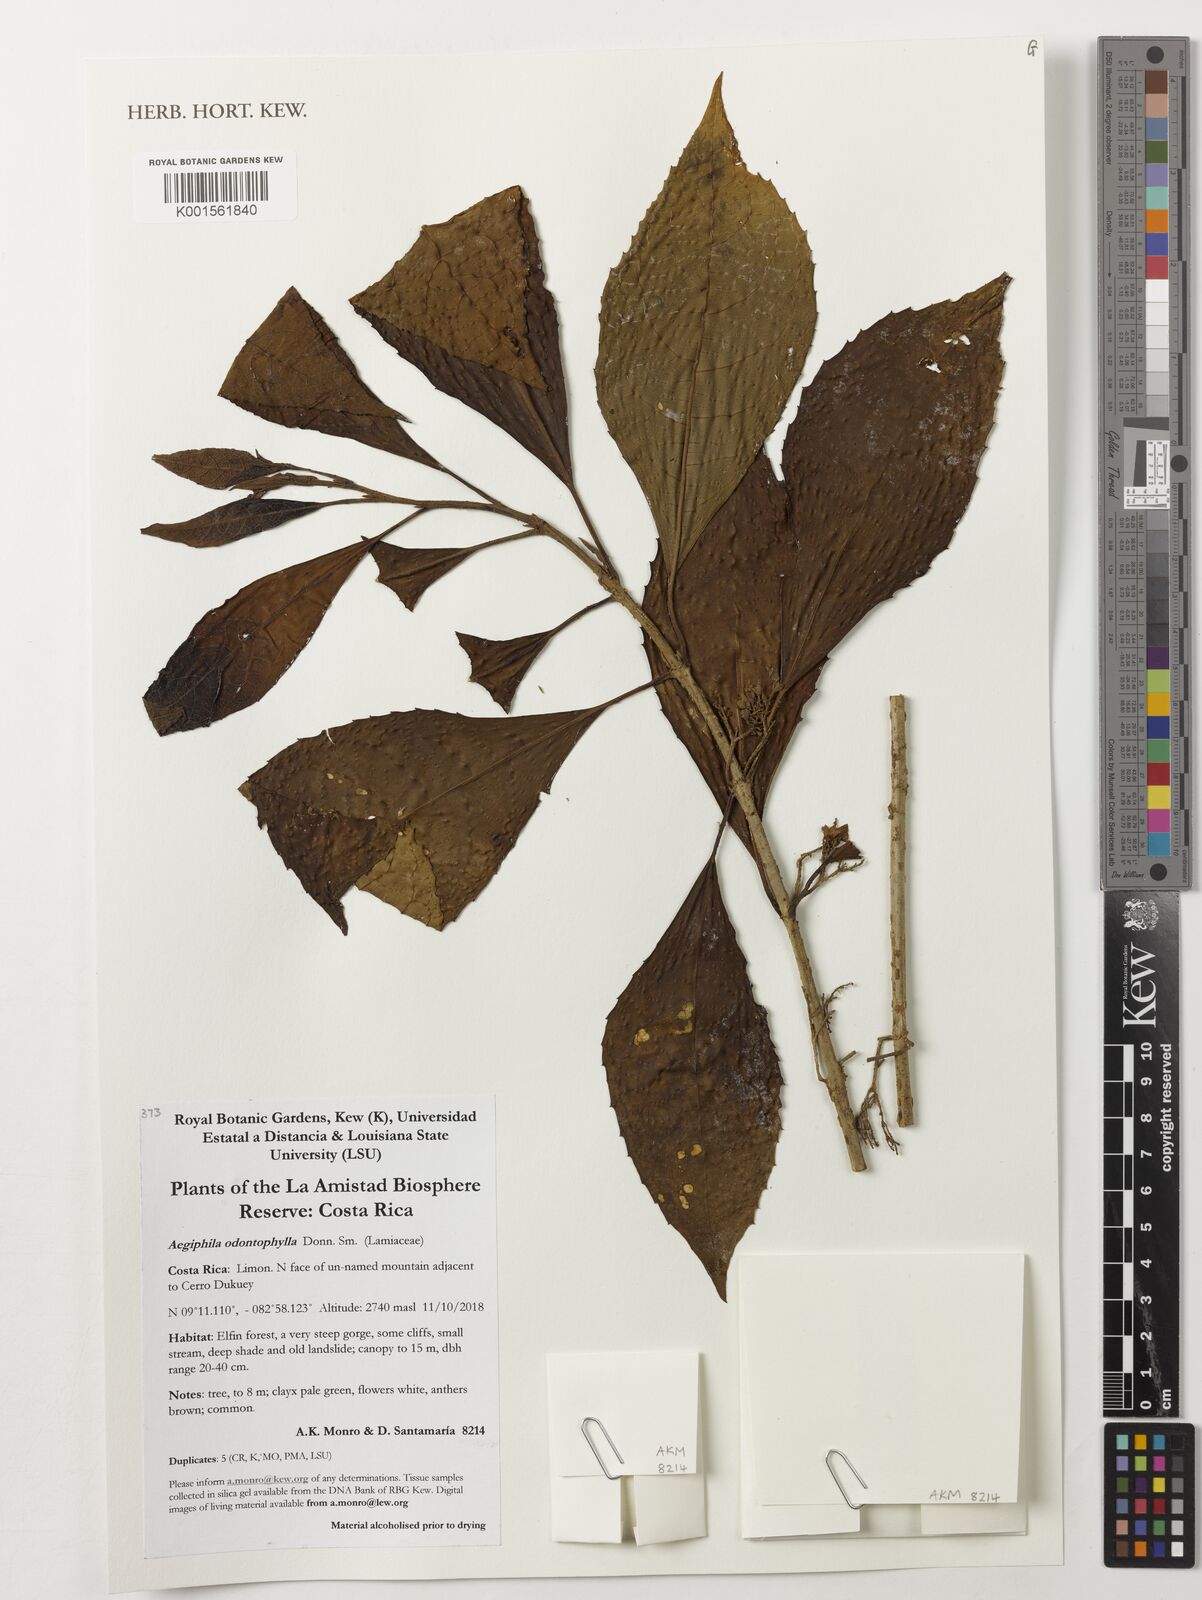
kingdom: Plantae
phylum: Tracheophyta
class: Magnoliopsida
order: Lamiales
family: Lamiaceae
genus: Aegiphila
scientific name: Aegiphila odontophylla
